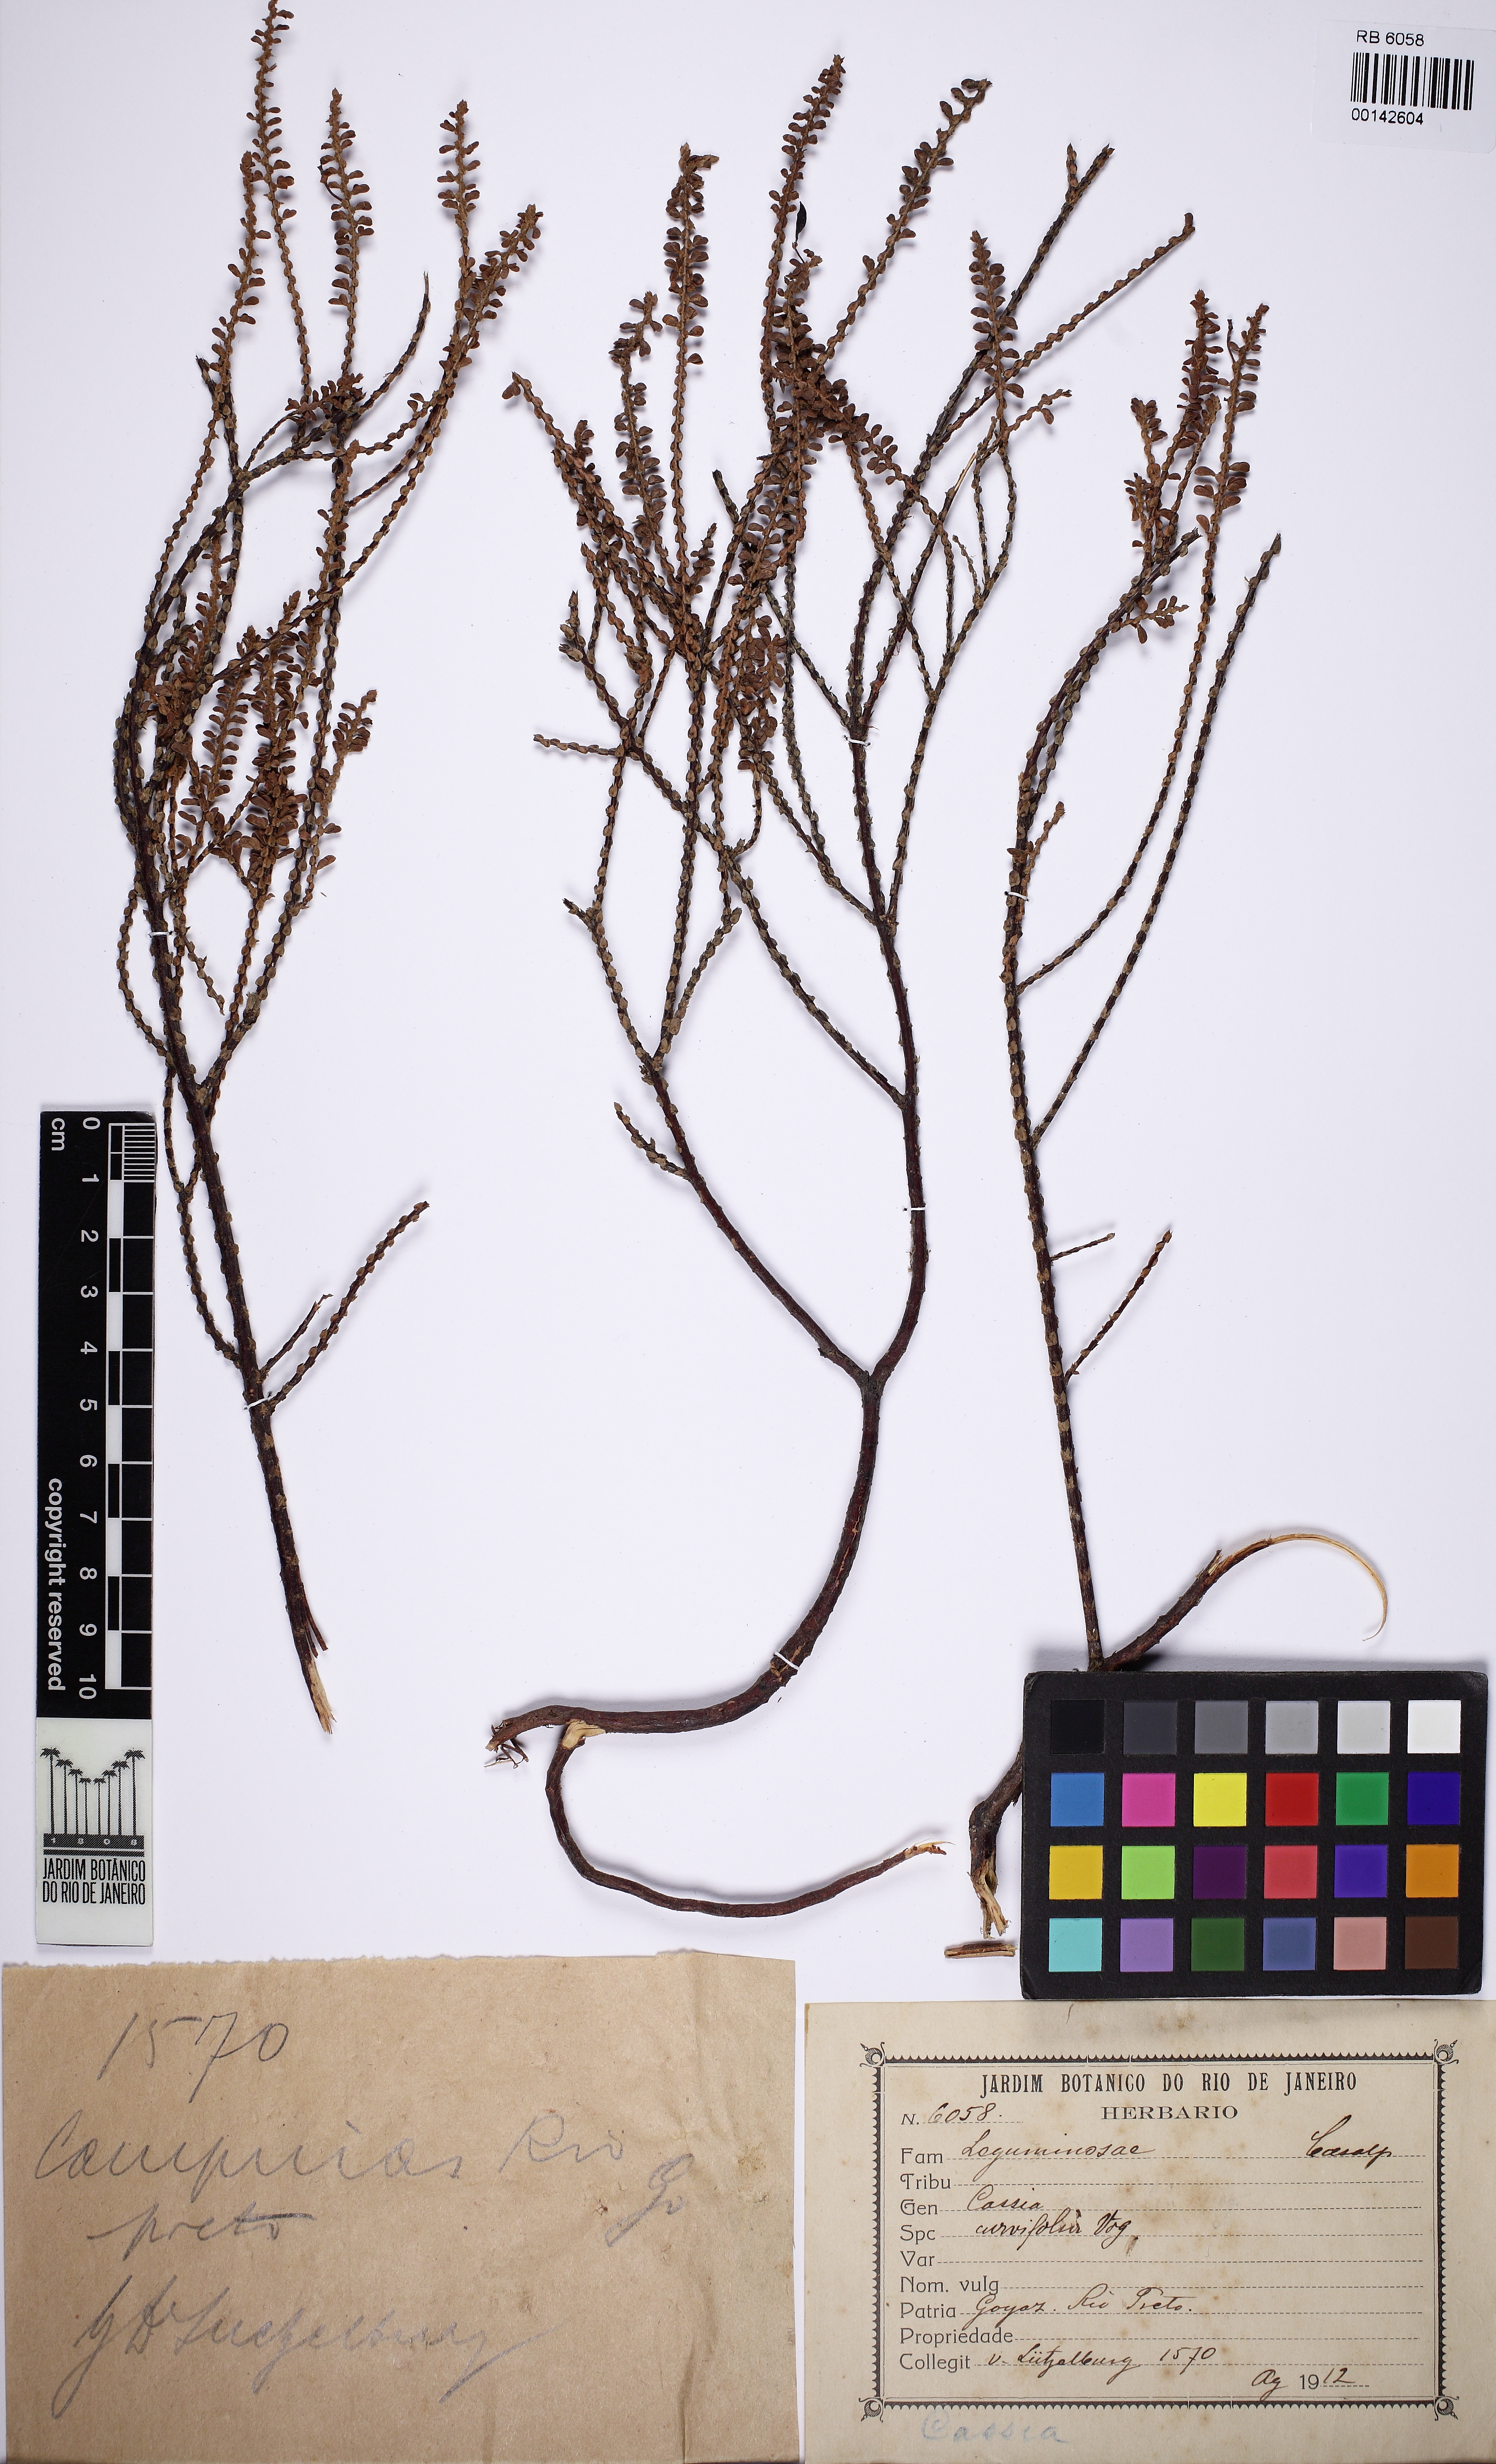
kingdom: Plantae
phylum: Tracheophyta
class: Magnoliopsida
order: Fabales
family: Fabaceae
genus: Chamaecrista
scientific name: Chamaecrista ramosa
